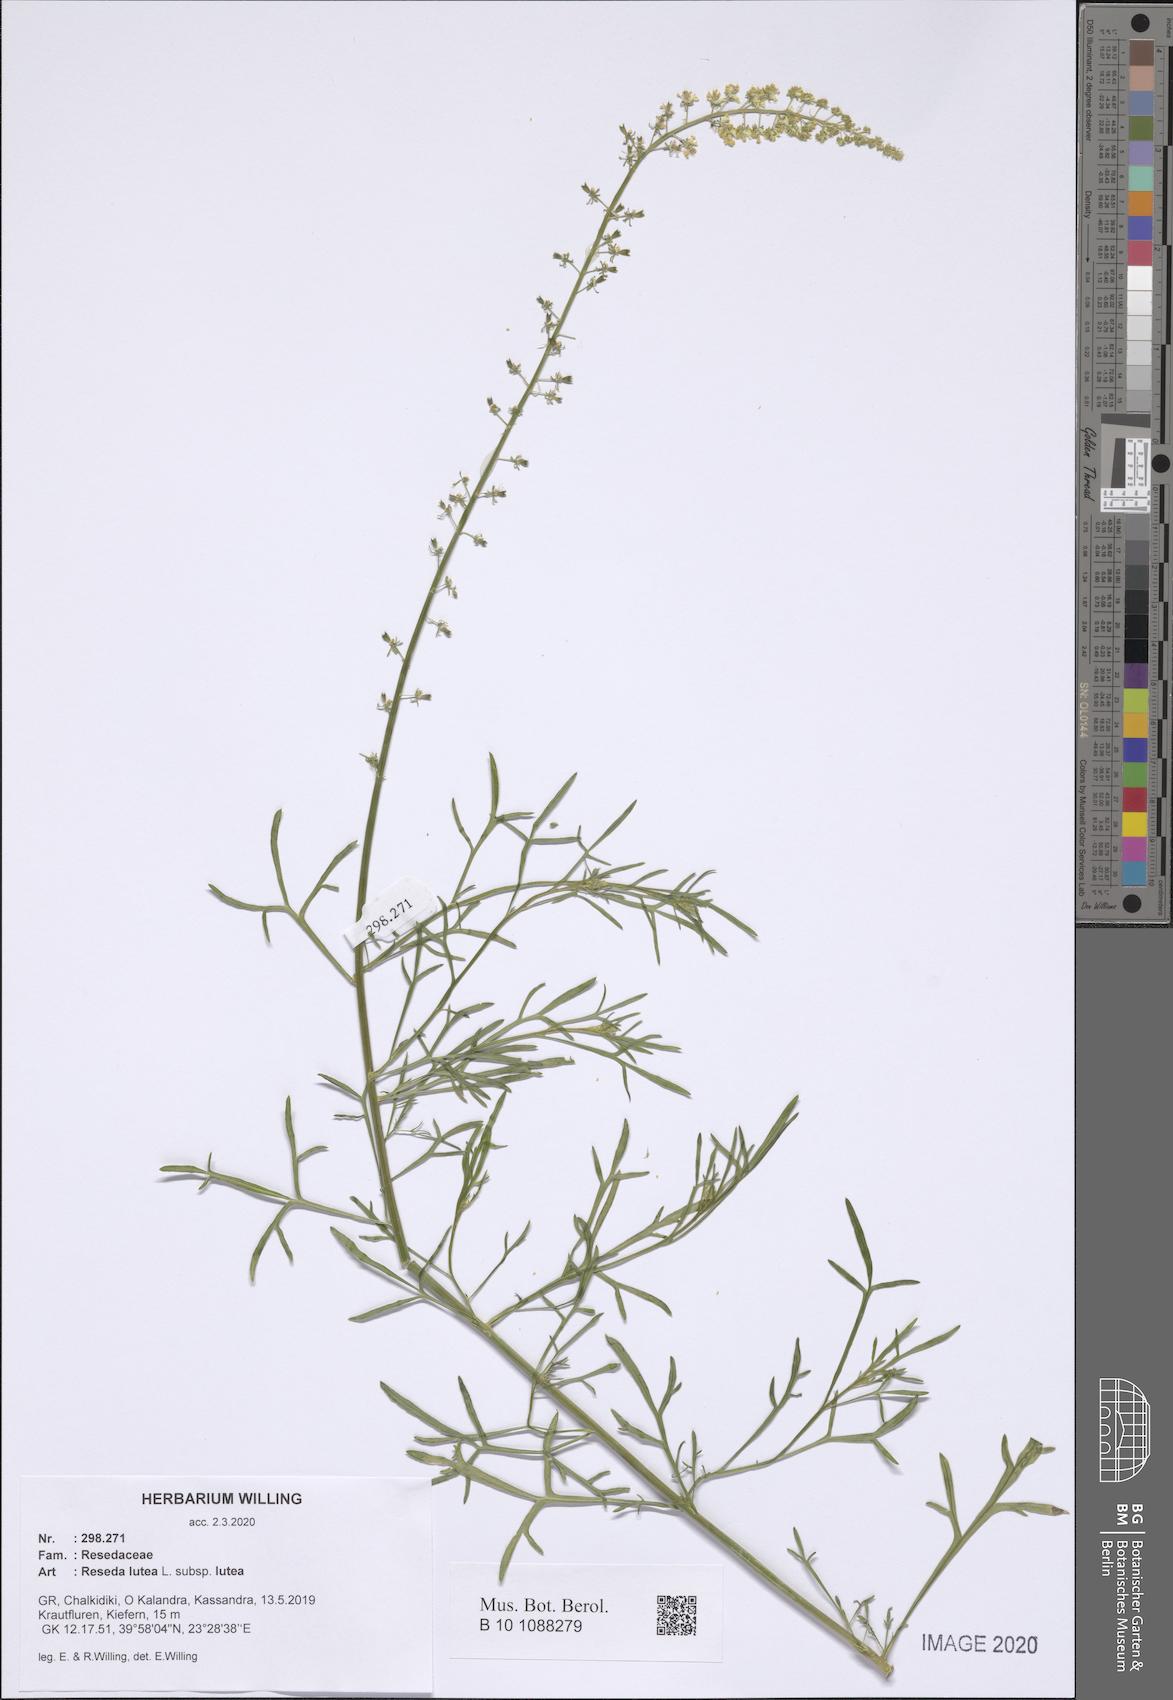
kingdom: Plantae
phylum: Tracheophyta
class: Magnoliopsida
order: Brassicales
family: Resedaceae
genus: Reseda
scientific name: Reseda lutea
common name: Wild mignonette
